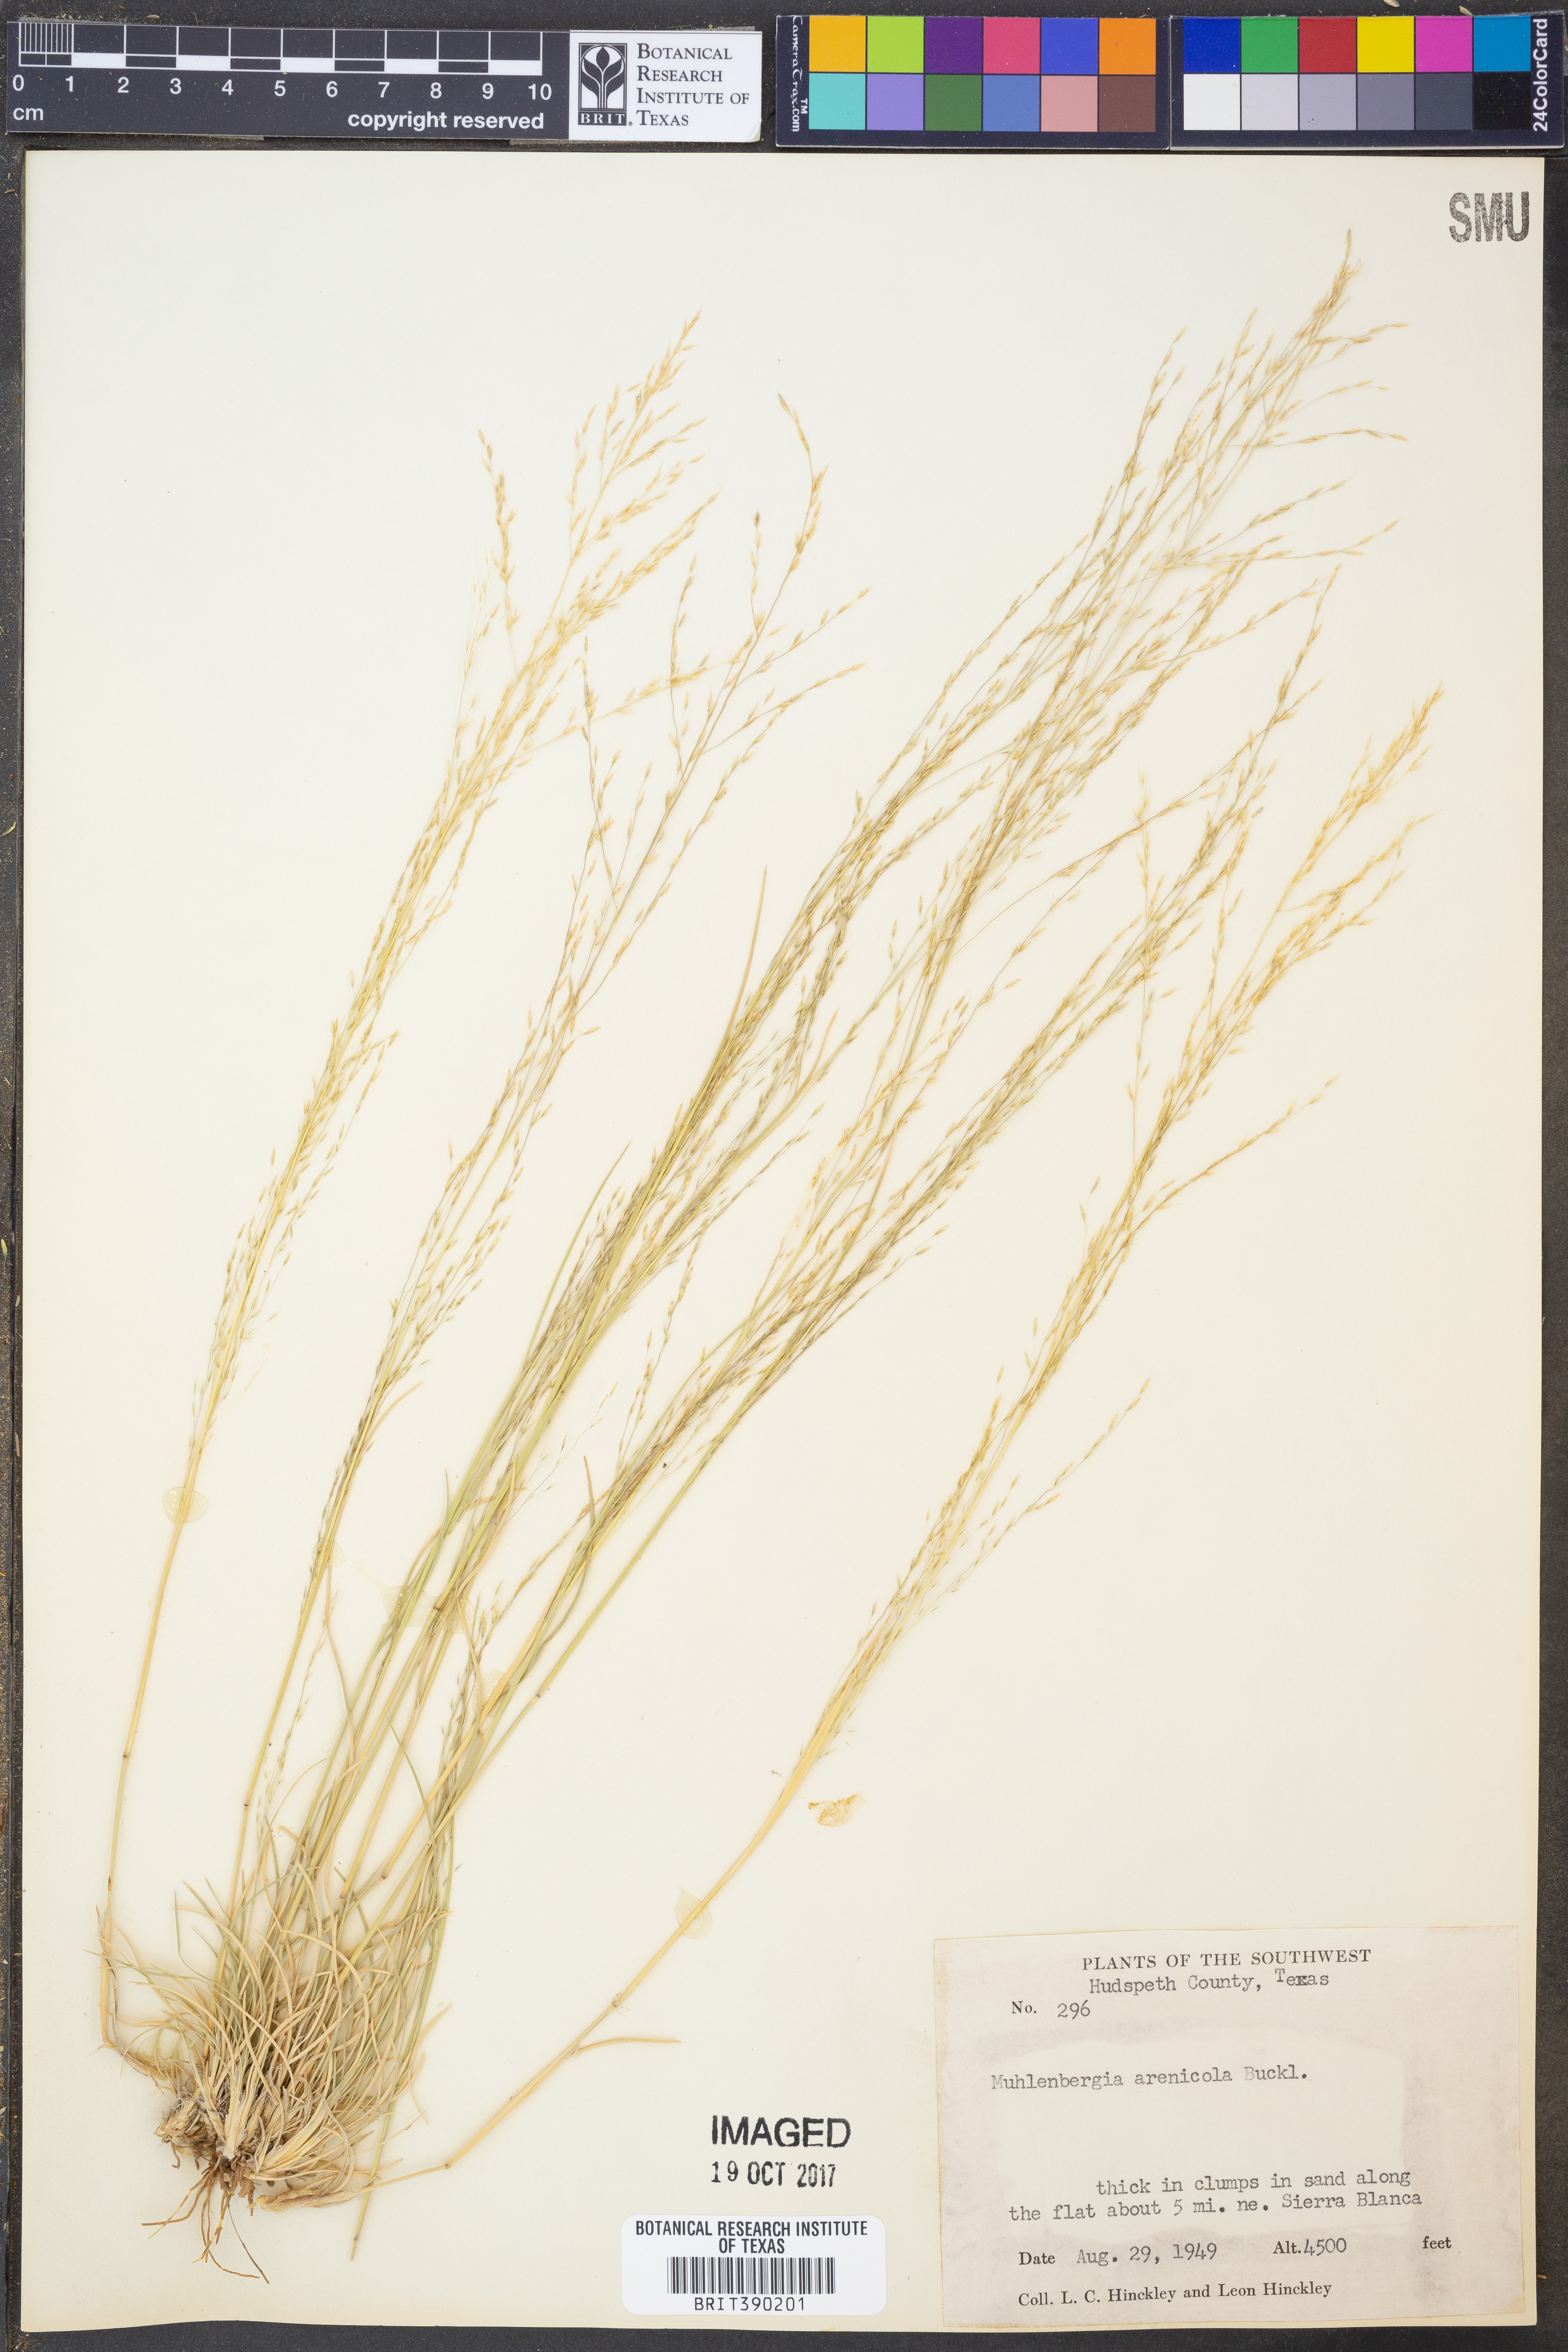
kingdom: Plantae
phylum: Tracheophyta
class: Liliopsida
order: Poales
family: Poaceae
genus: Muhlenbergia
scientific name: Muhlenbergia arenicola
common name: Sand muhly
